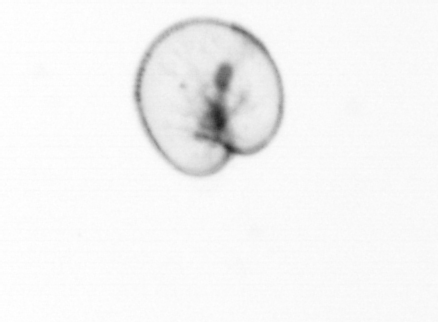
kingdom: Chromista
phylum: Myzozoa
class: Dinophyceae
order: Noctilucales
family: Noctilucaceae
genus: Noctiluca
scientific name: Noctiluca scintillans
